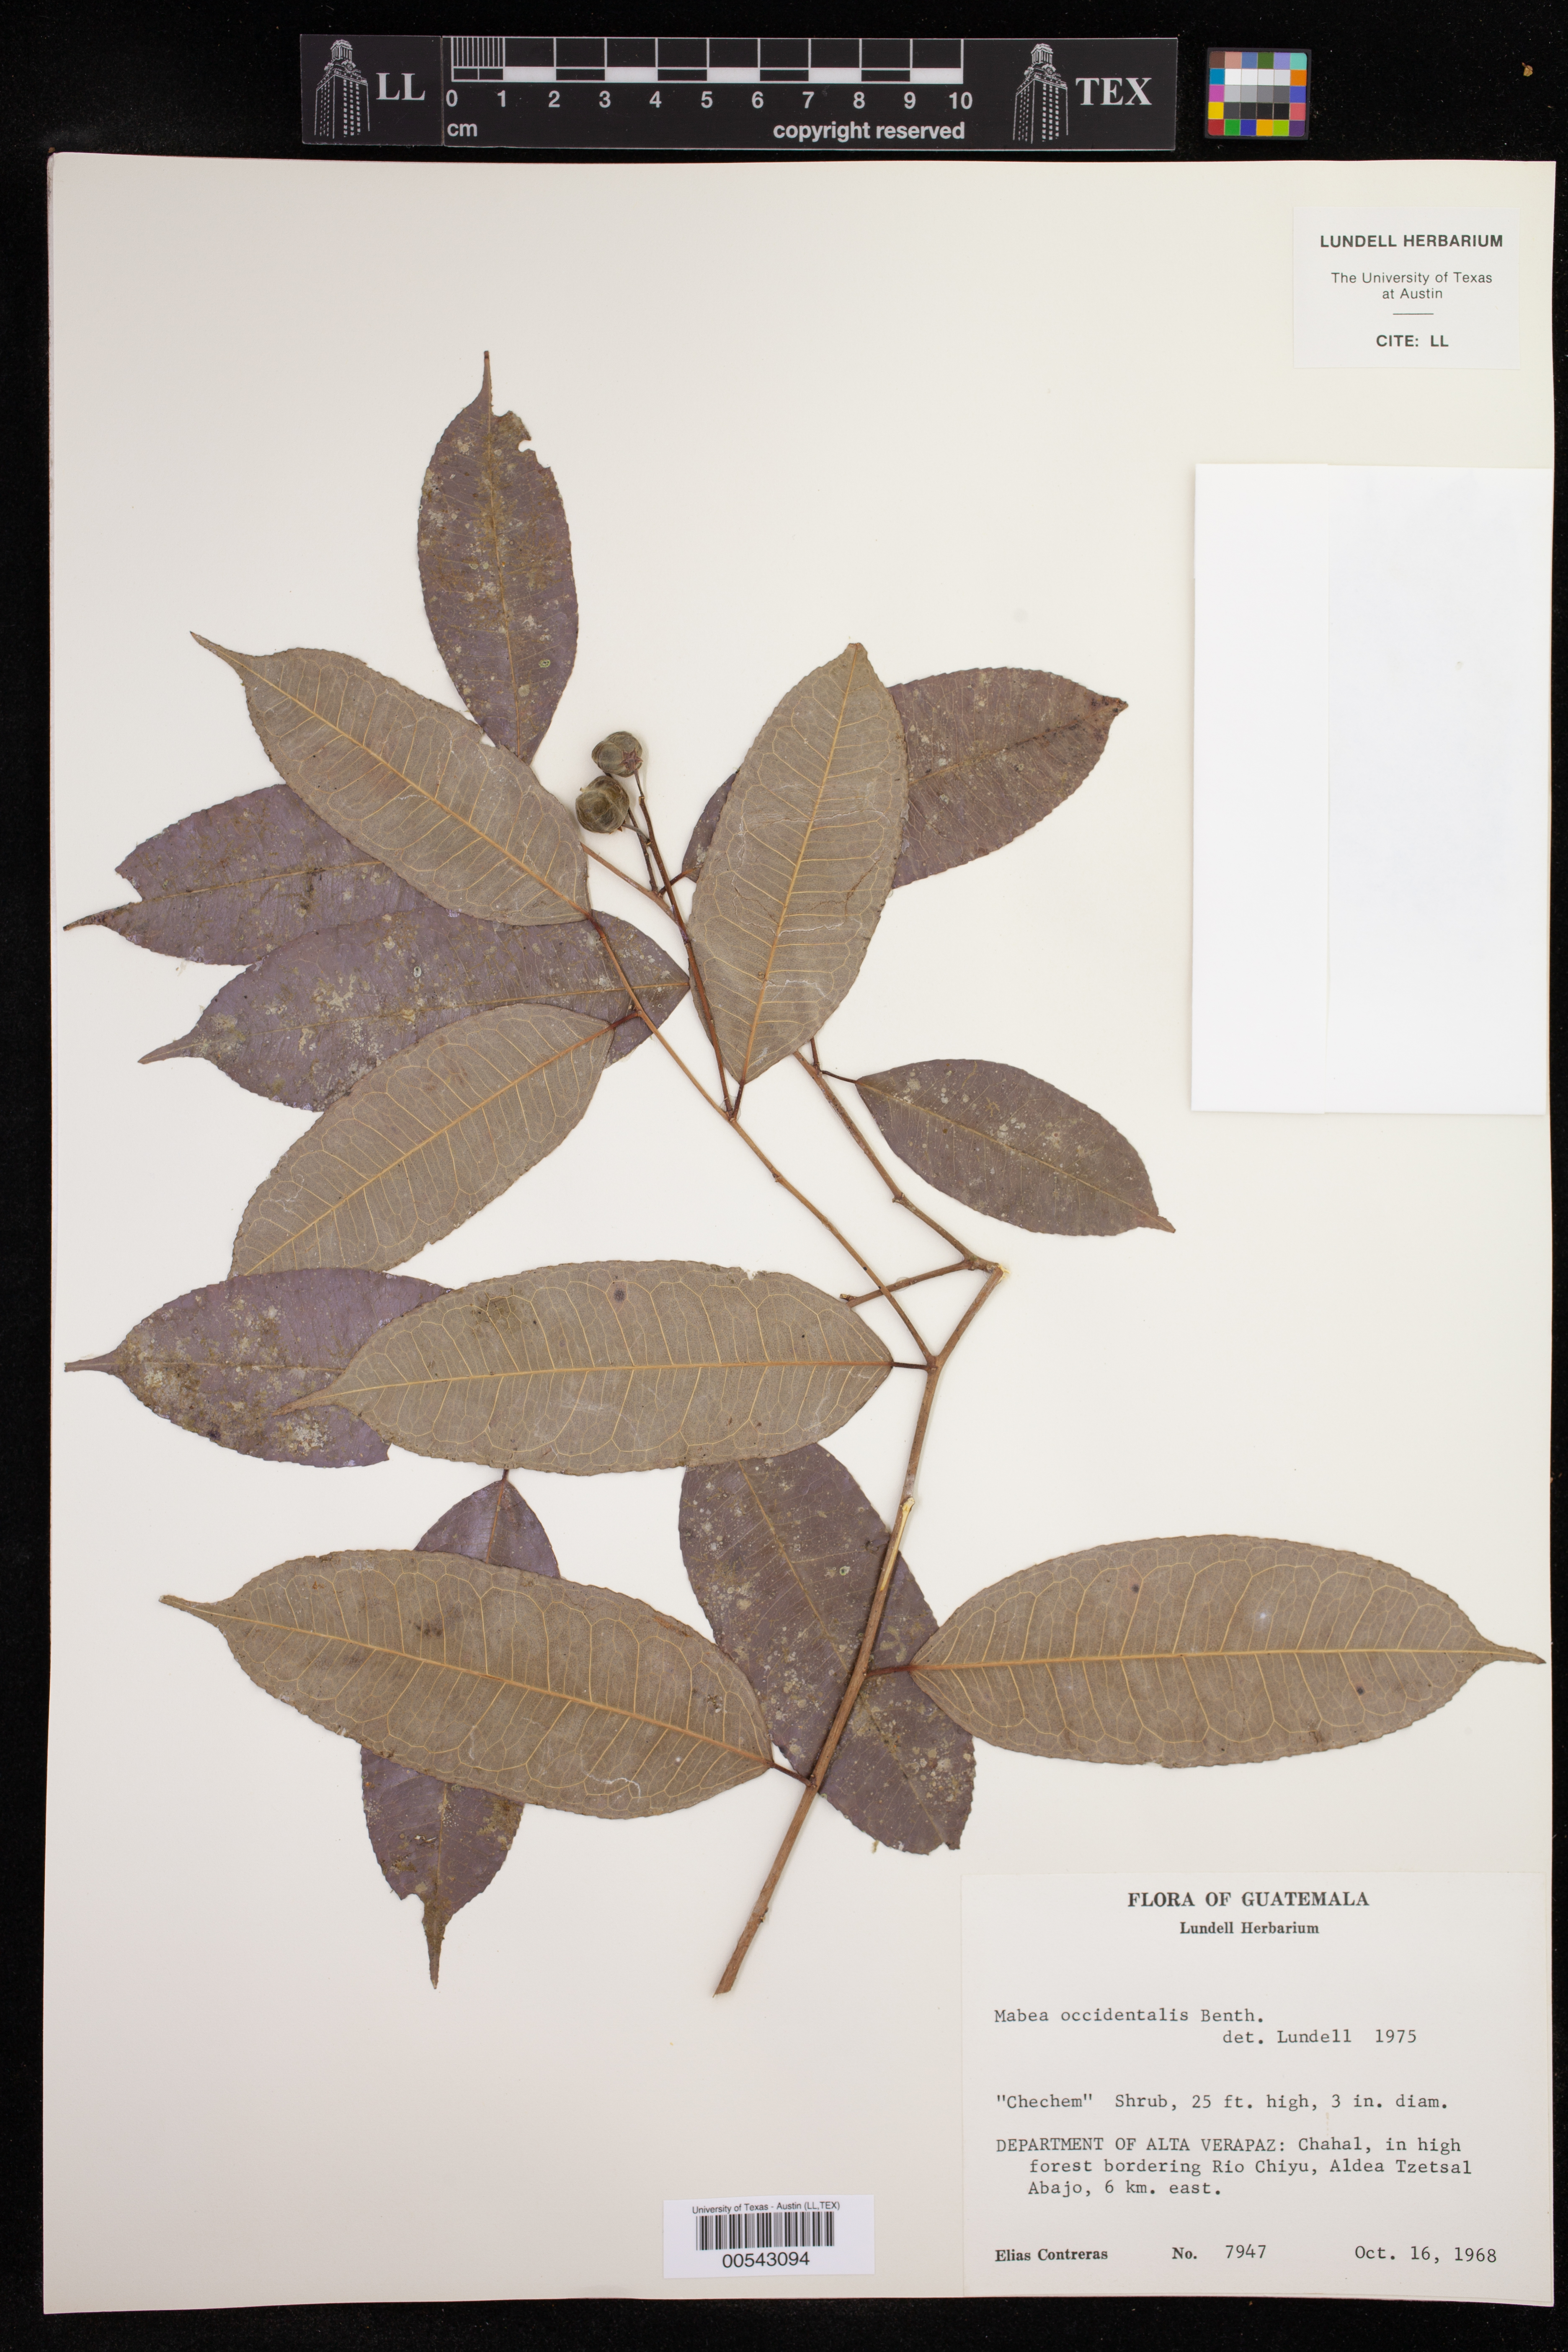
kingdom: Plantae
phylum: Tracheophyta
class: Magnoliopsida
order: Malpighiales
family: Euphorbiaceae
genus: Mabea
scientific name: Mabea occidentalis
